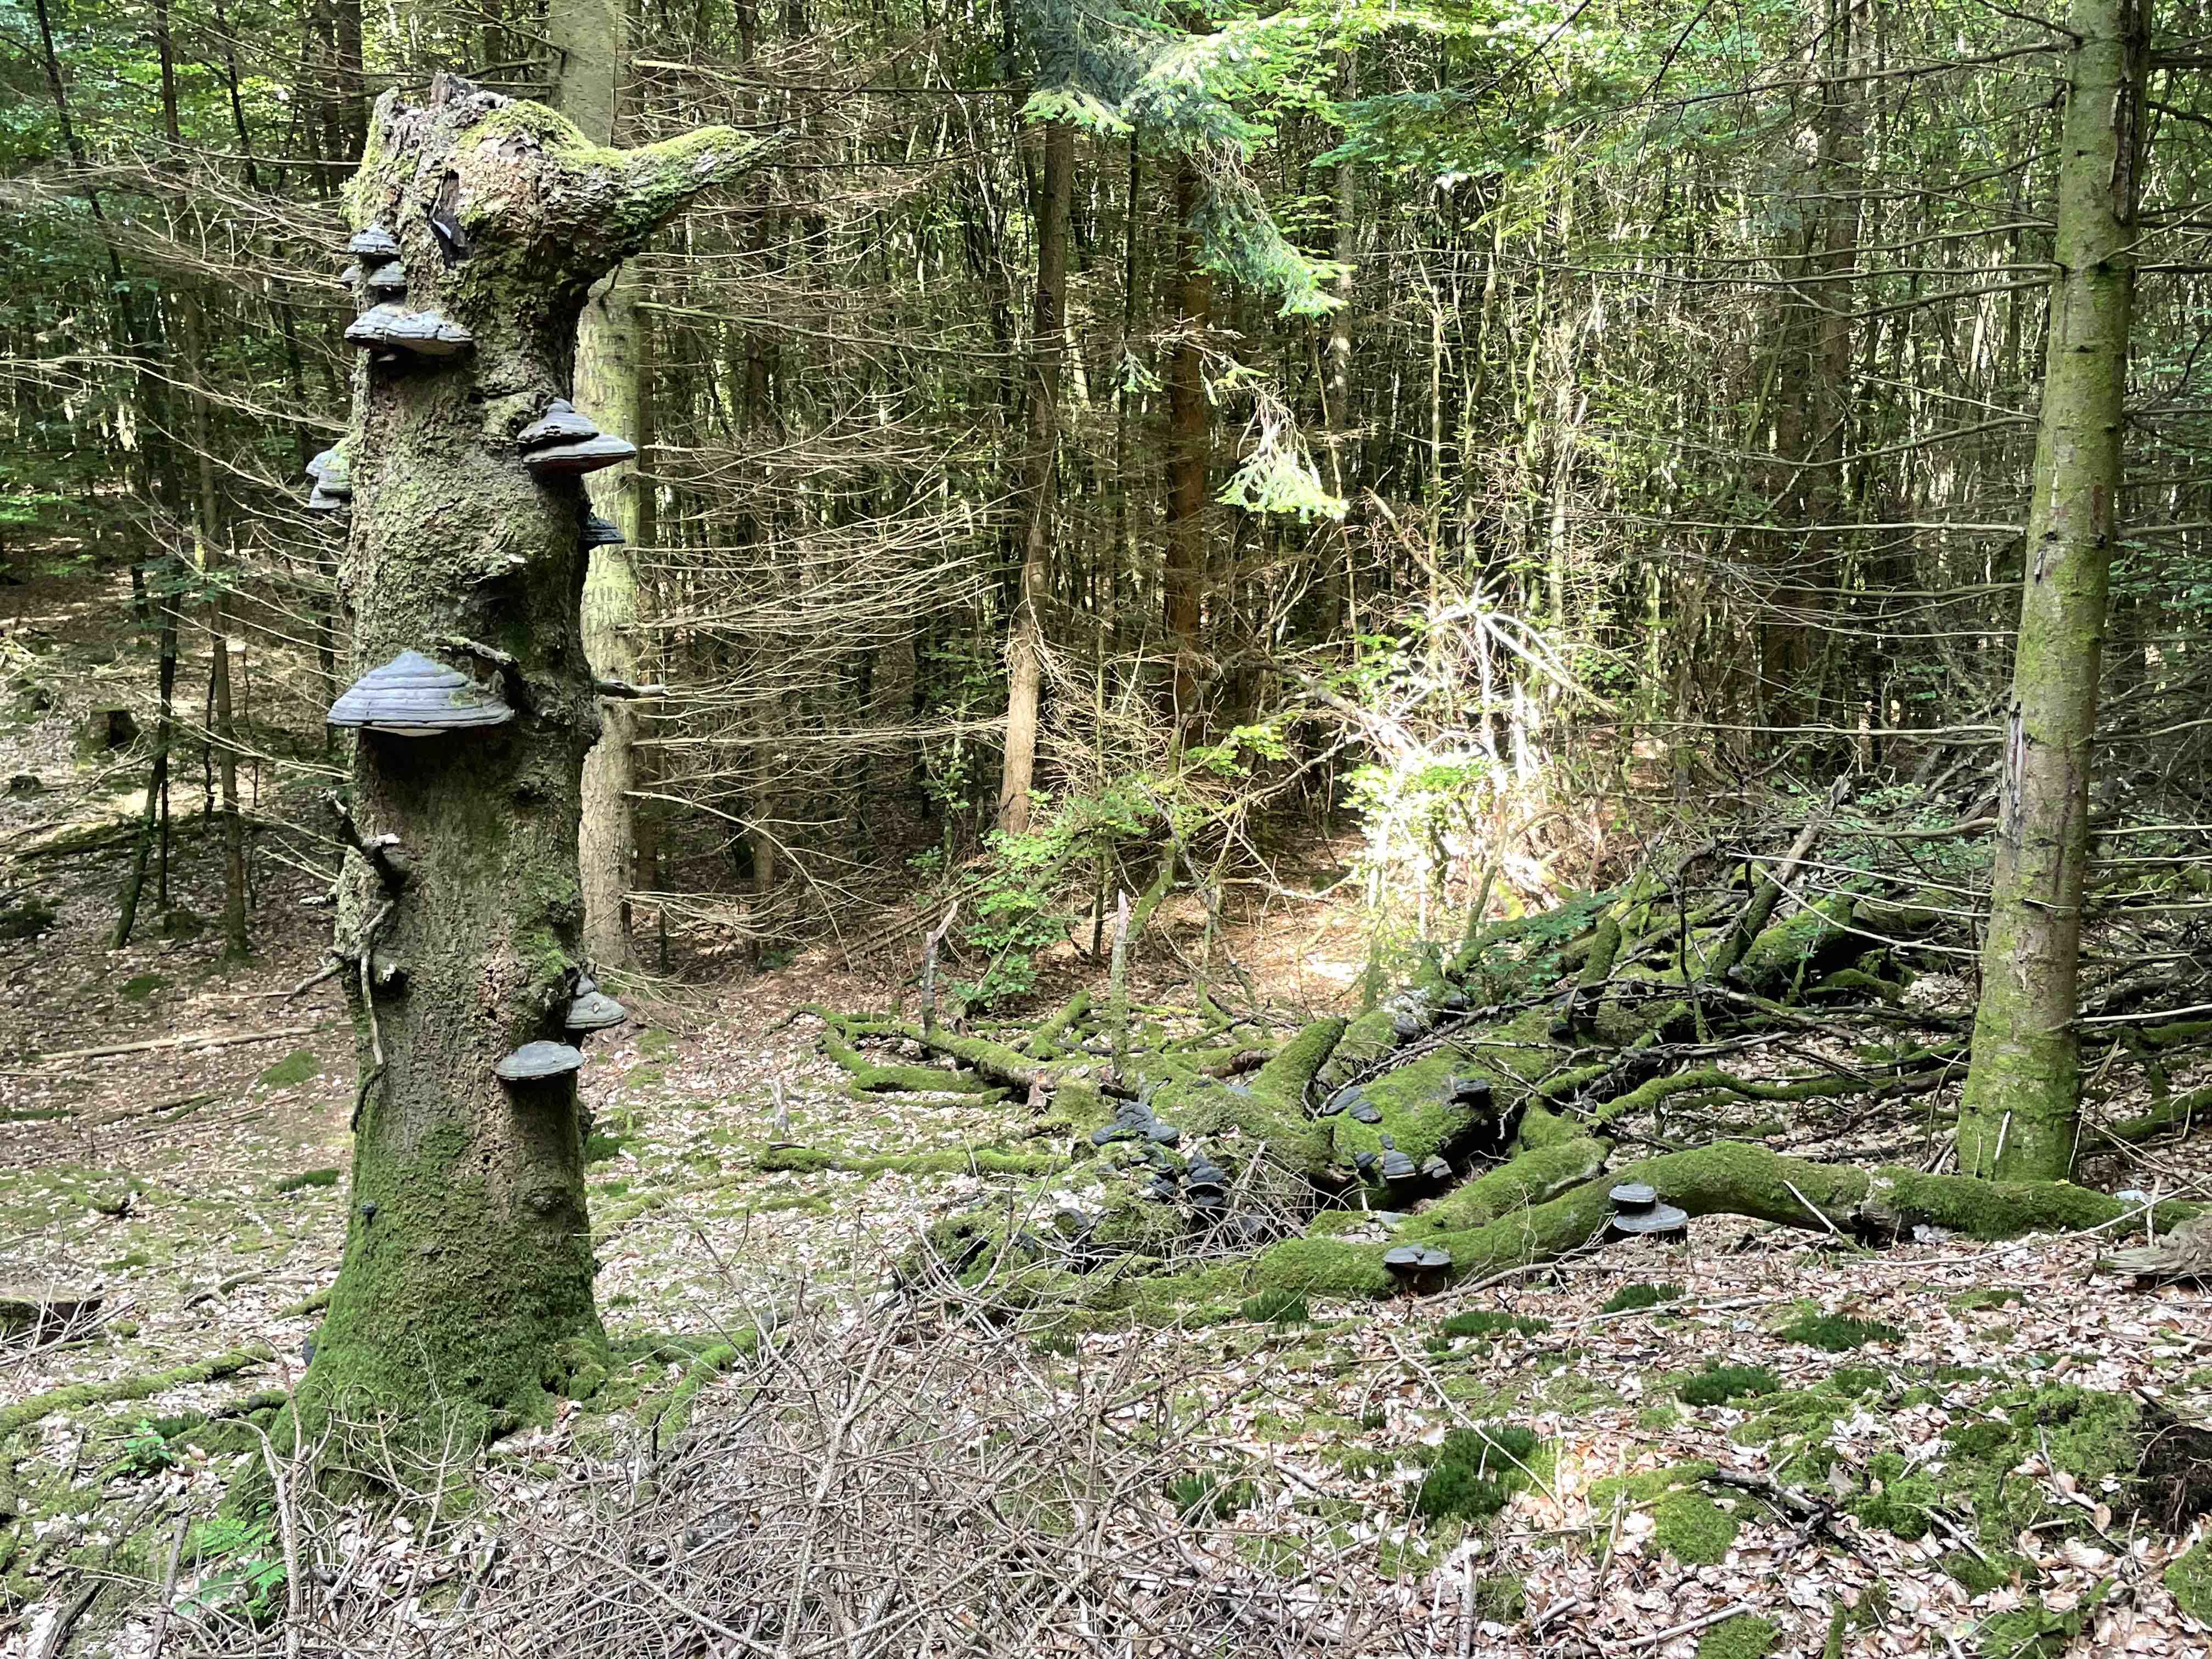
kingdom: Fungi
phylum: Basidiomycota
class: Agaricomycetes
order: Polyporales
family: Polyporaceae
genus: Fomes
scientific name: Fomes fomentarius
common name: tøndersvamp
